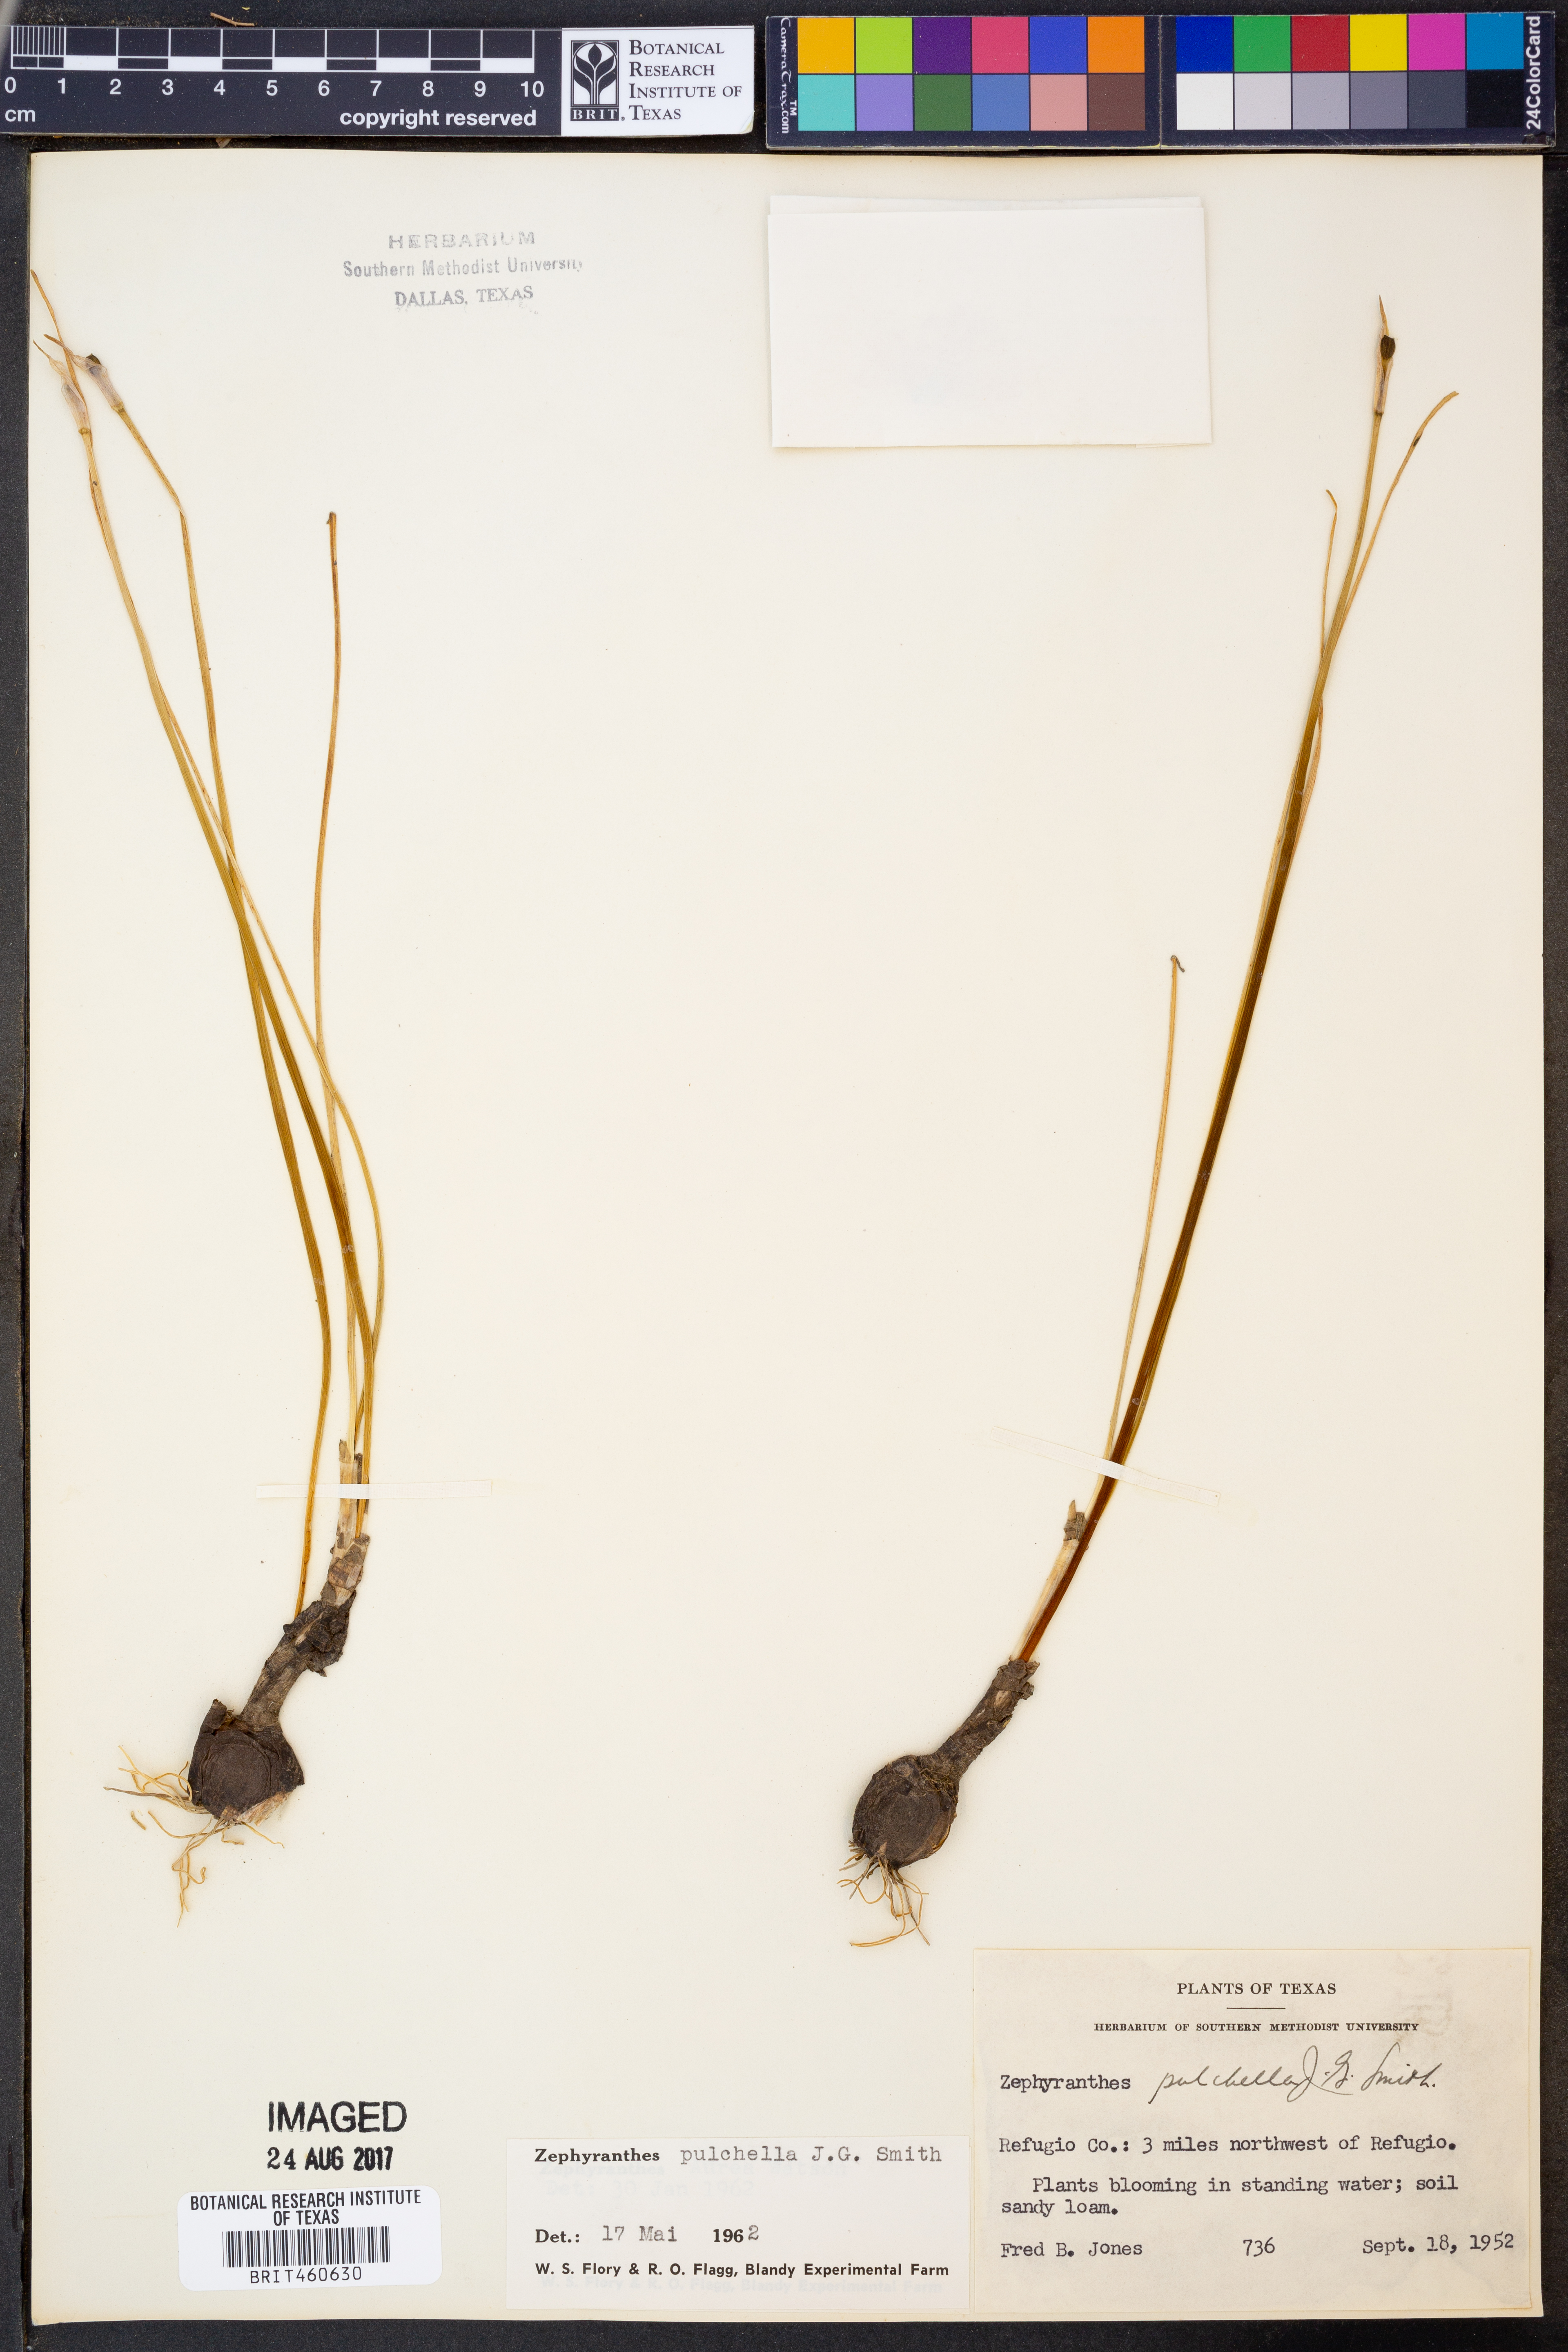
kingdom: Plantae
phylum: Tracheophyta
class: Liliopsida
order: Asparagales
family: Amaryllidaceae
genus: Zephyranthes
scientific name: Zephyranthes pulchella
